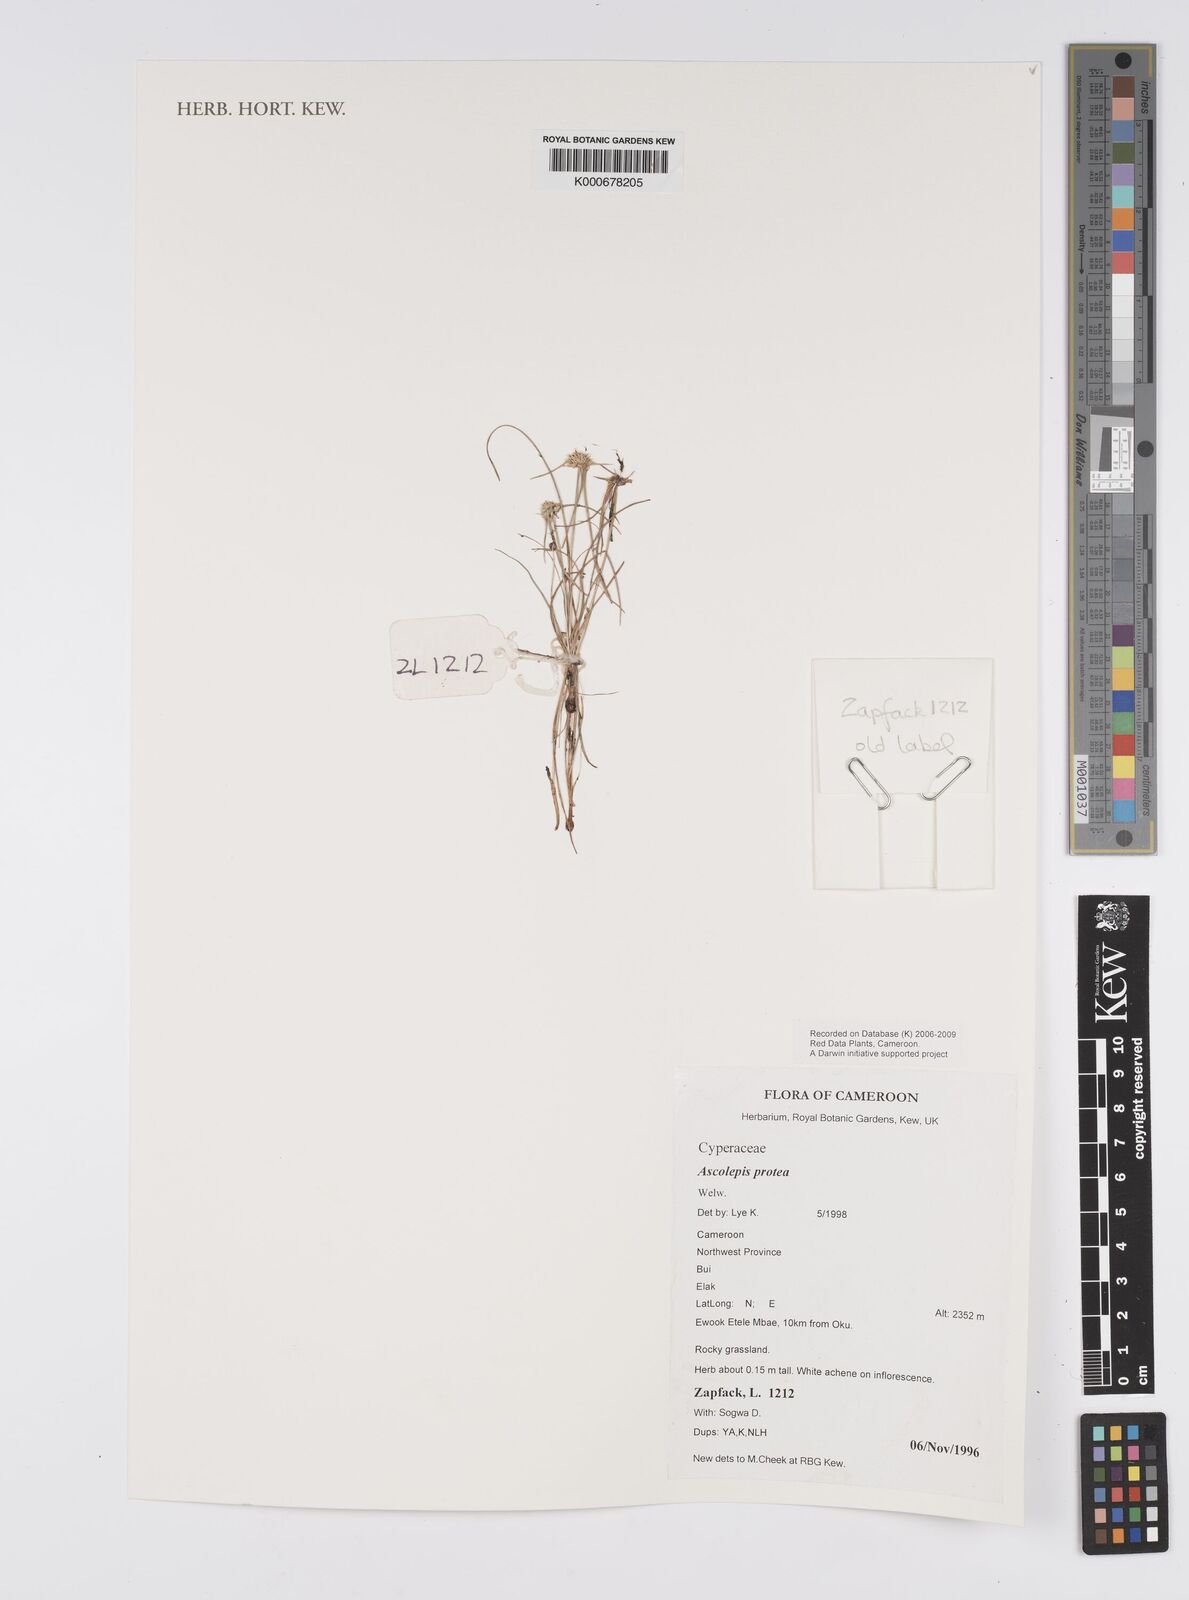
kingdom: Plantae
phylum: Tracheophyta
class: Liliopsida
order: Poales
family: Cyperaceae
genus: Cyperus
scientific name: Cyperus proteus
